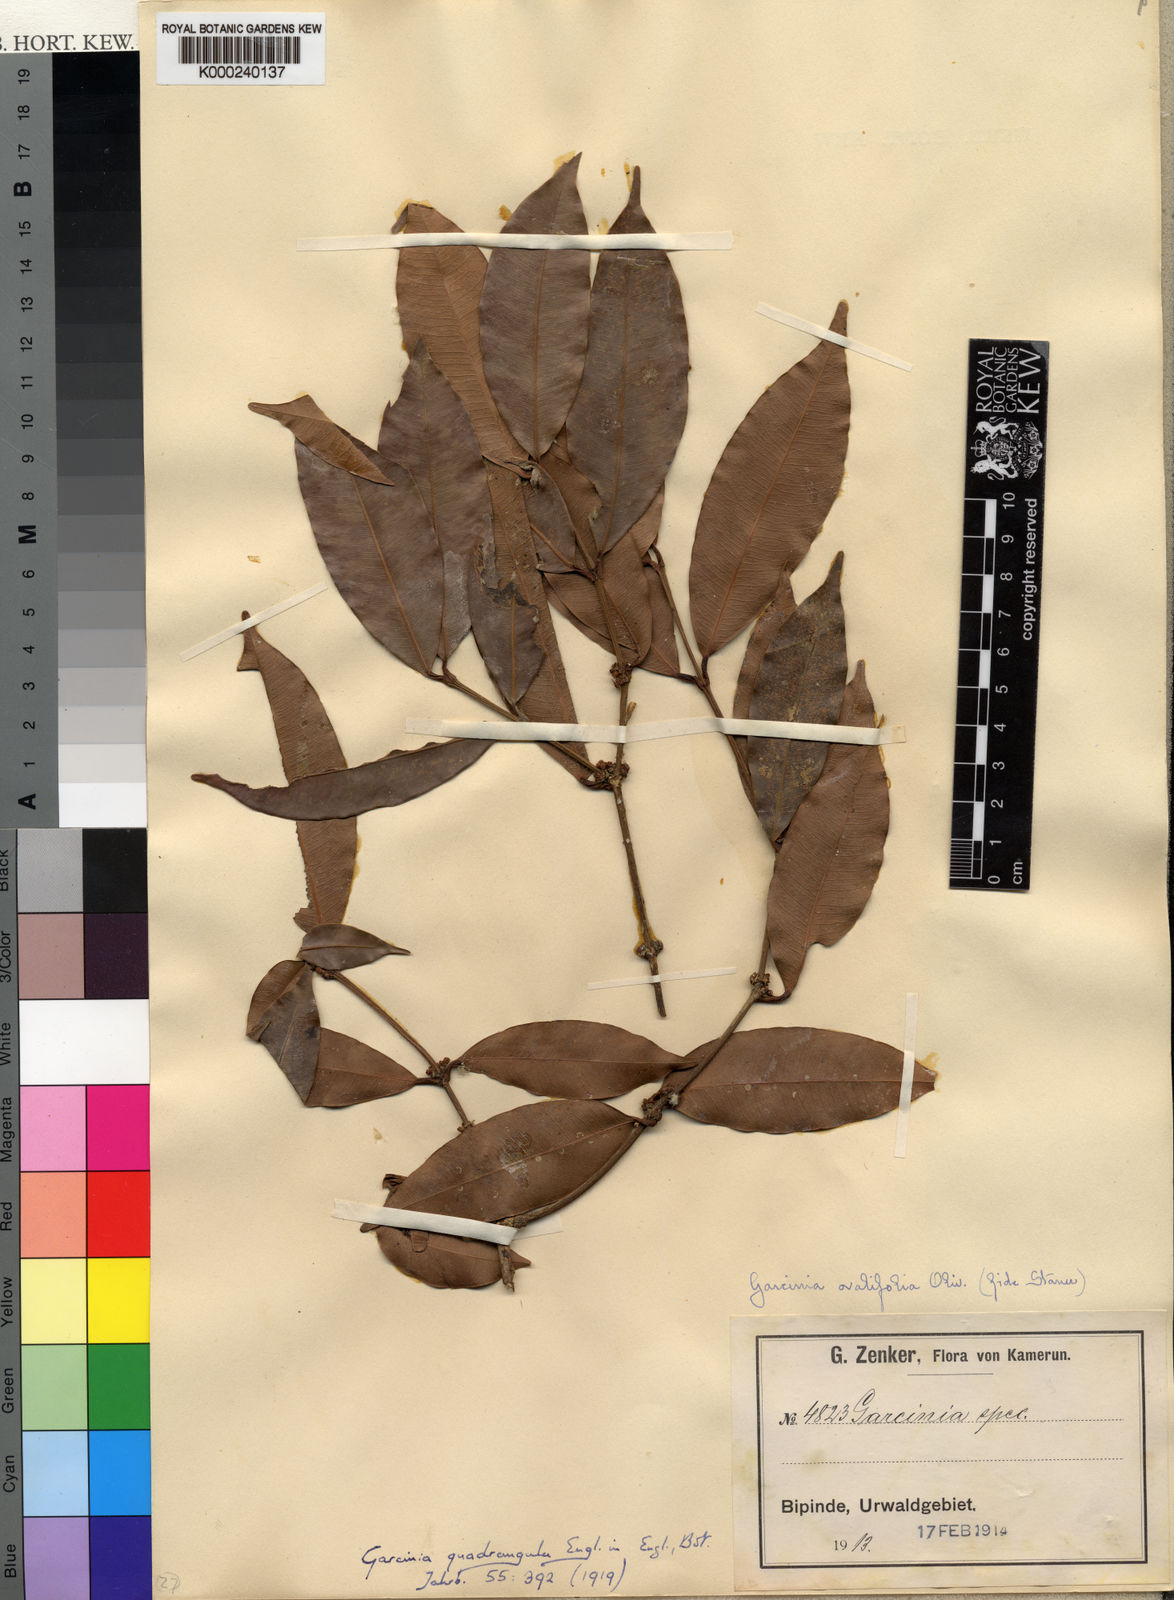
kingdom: Plantae
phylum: Tracheophyta
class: Magnoliopsida
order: Malpighiales
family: Clusiaceae
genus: Garcinia
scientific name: Garcinia ovalifolia
